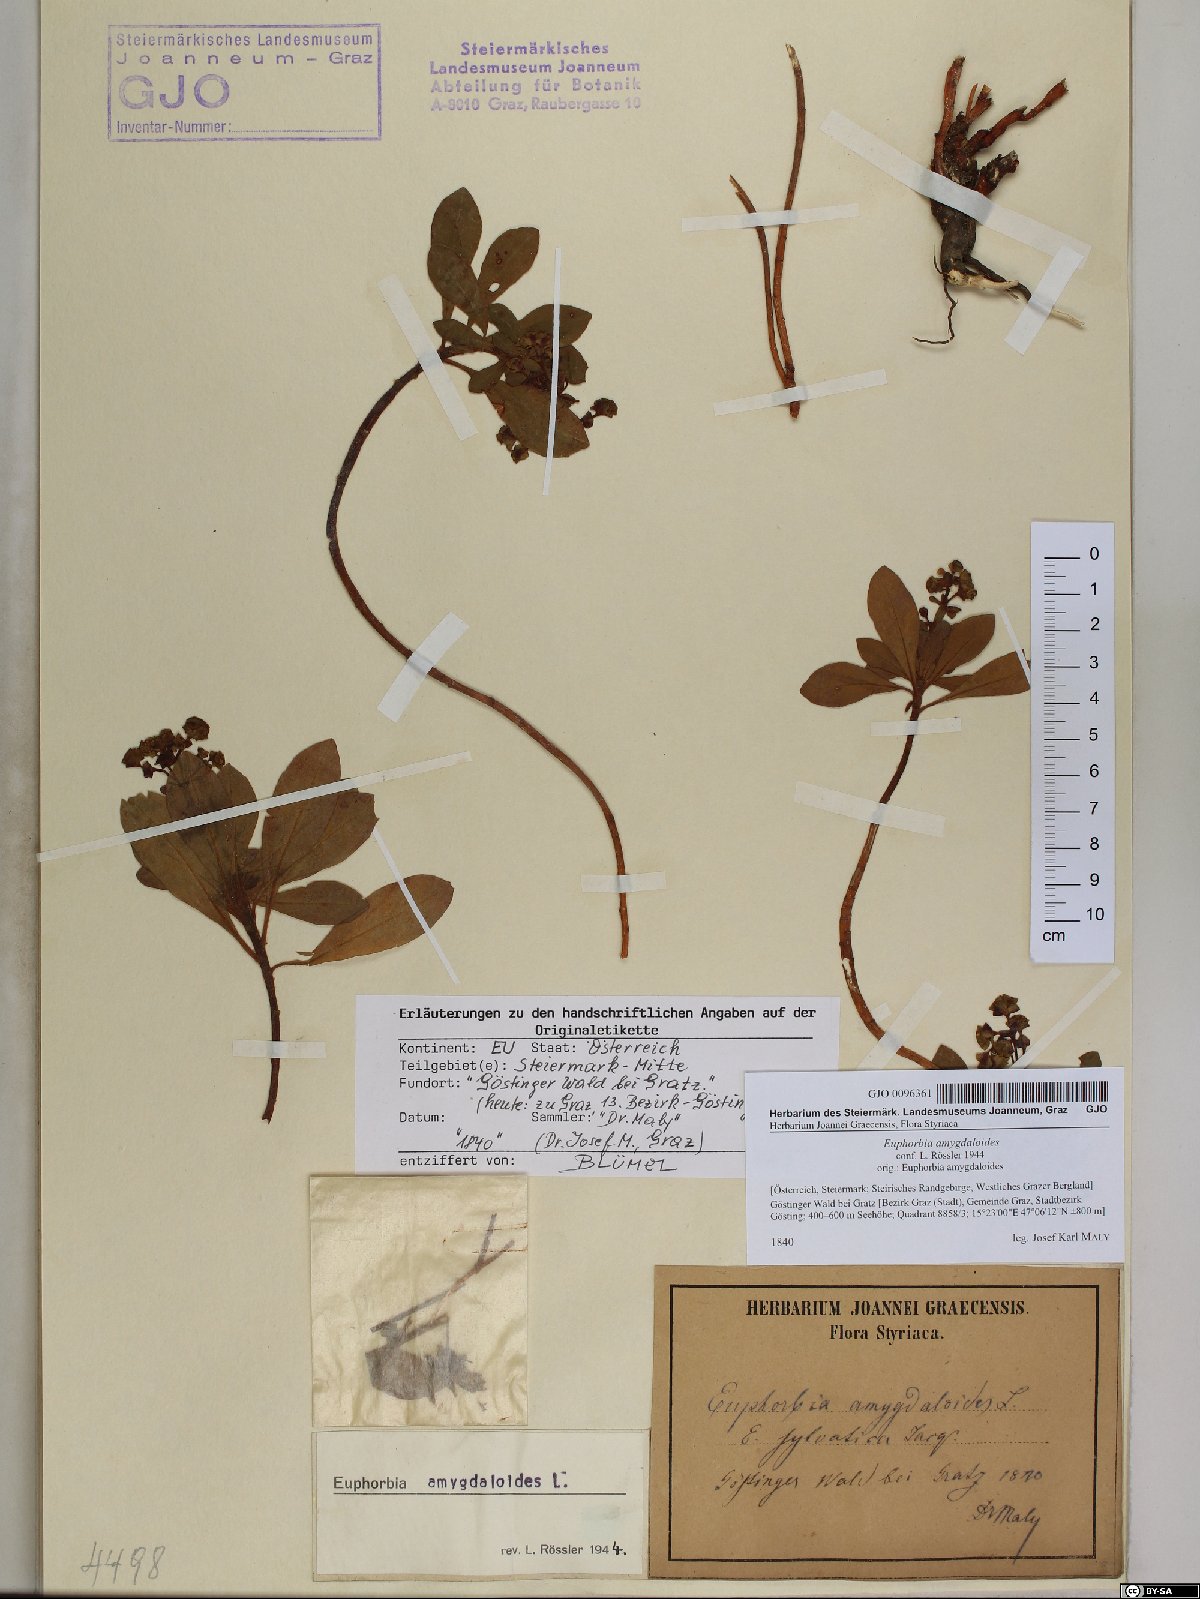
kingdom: Plantae
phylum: Tracheophyta
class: Magnoliopsida
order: Malpighiales
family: Euphorbiaceae
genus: Euphorbia
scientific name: Euphorbia amygdaloides
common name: Wood spurge
